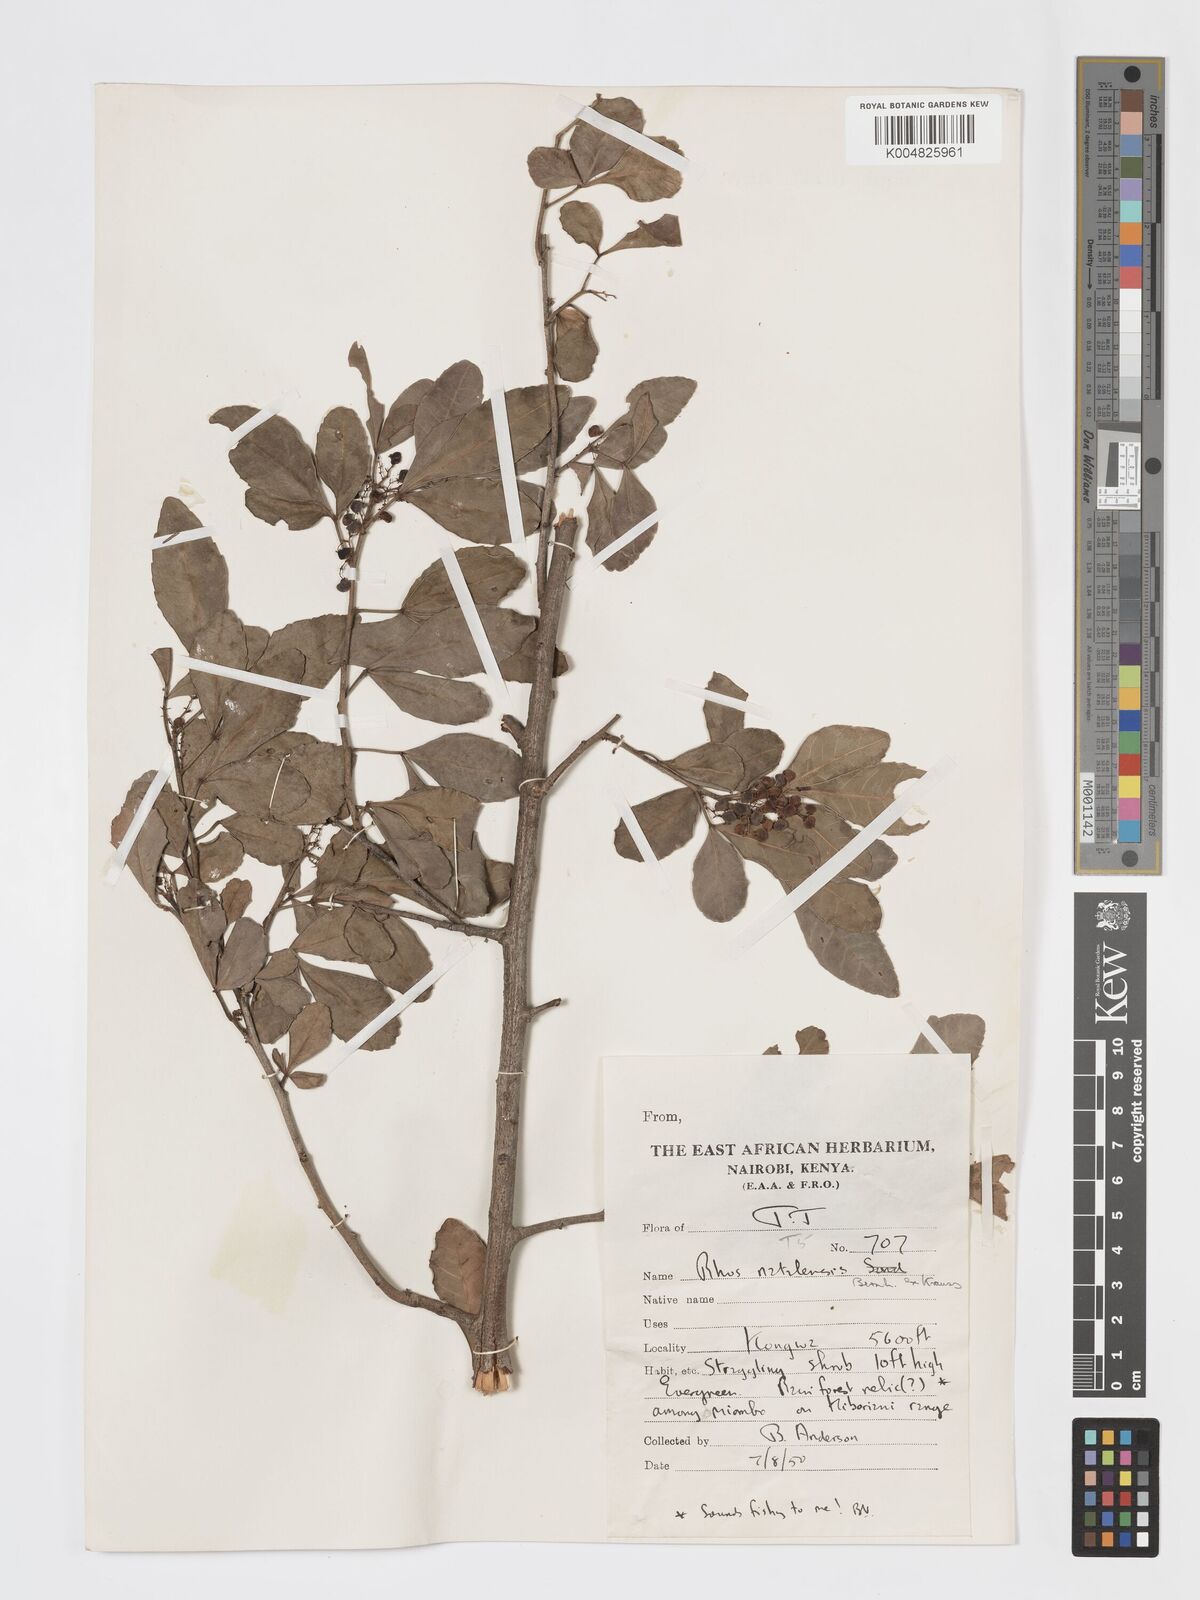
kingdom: Plantae
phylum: Tracheophyta
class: Magnoliopsida
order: Sapindales
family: Anacardiaceae
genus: Searsia
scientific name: Searsia natalensis
